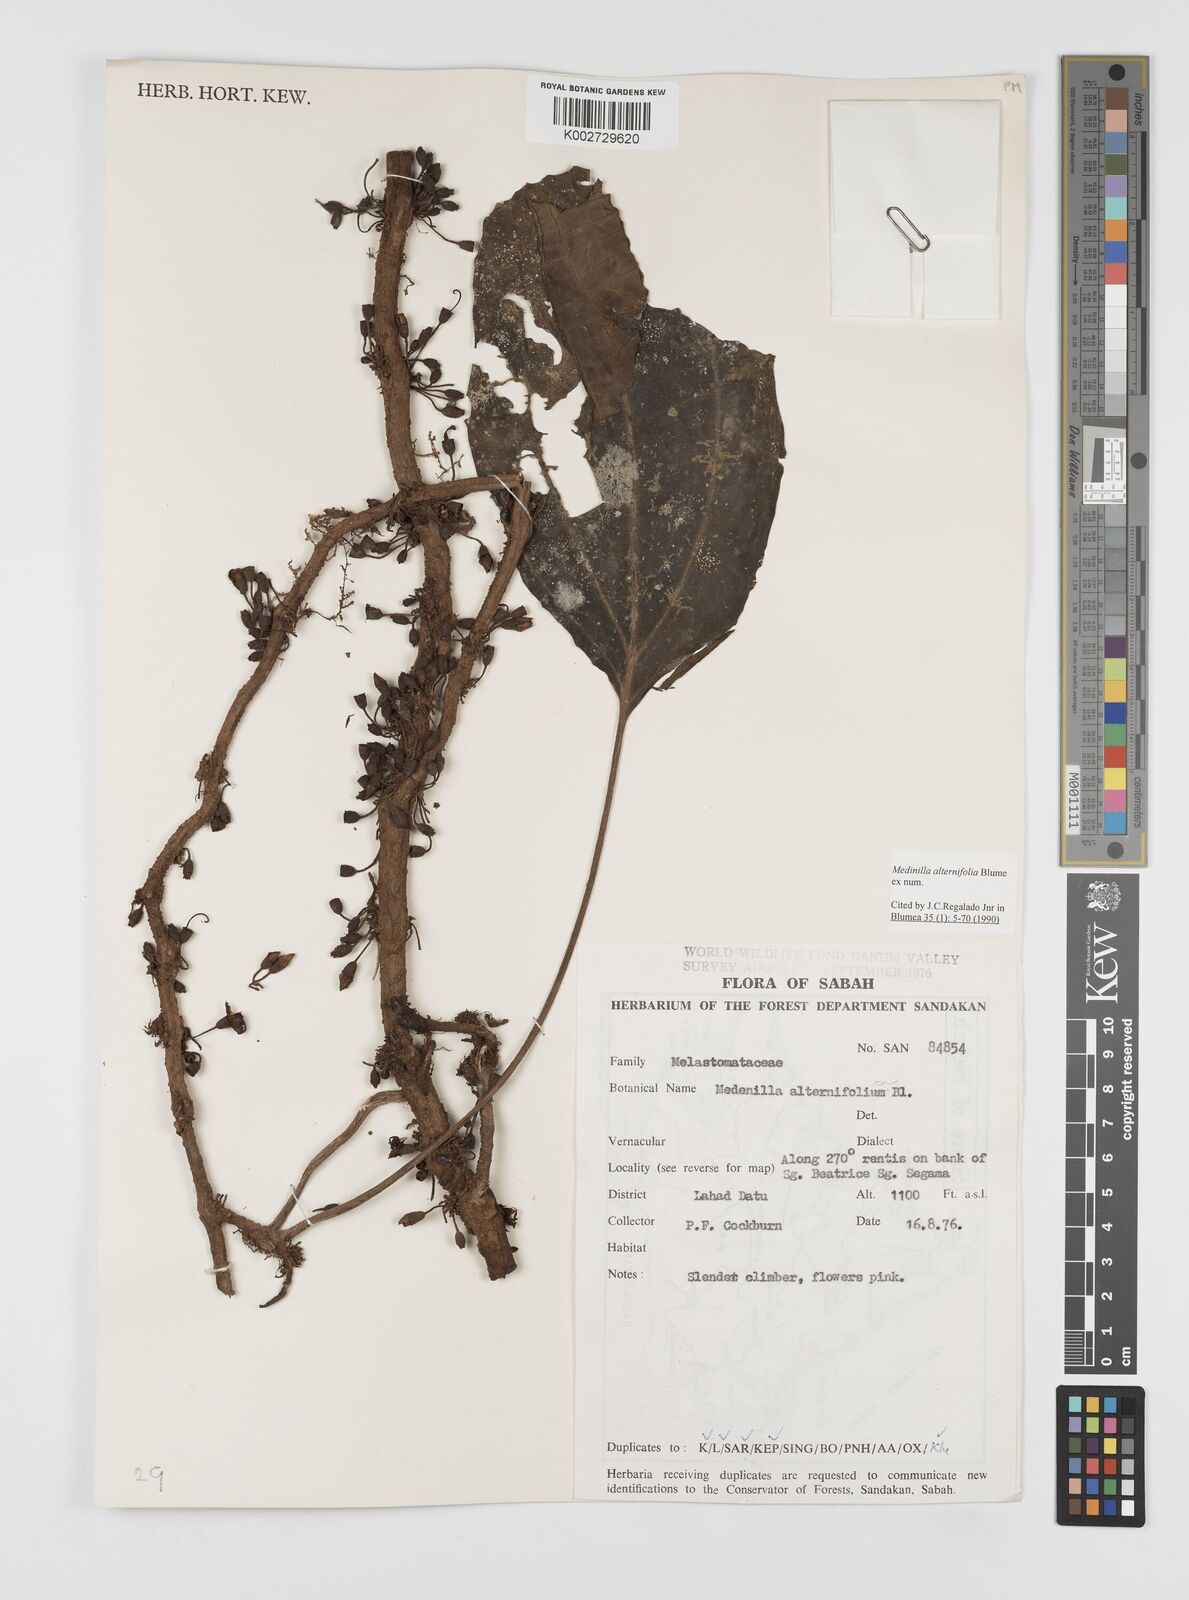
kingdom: Plantae
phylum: Tracheophyta
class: Magnoliopsida
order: Myrtales
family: Melastomataceae
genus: Heteroblemma
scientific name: Heteroblemma alternifolium
